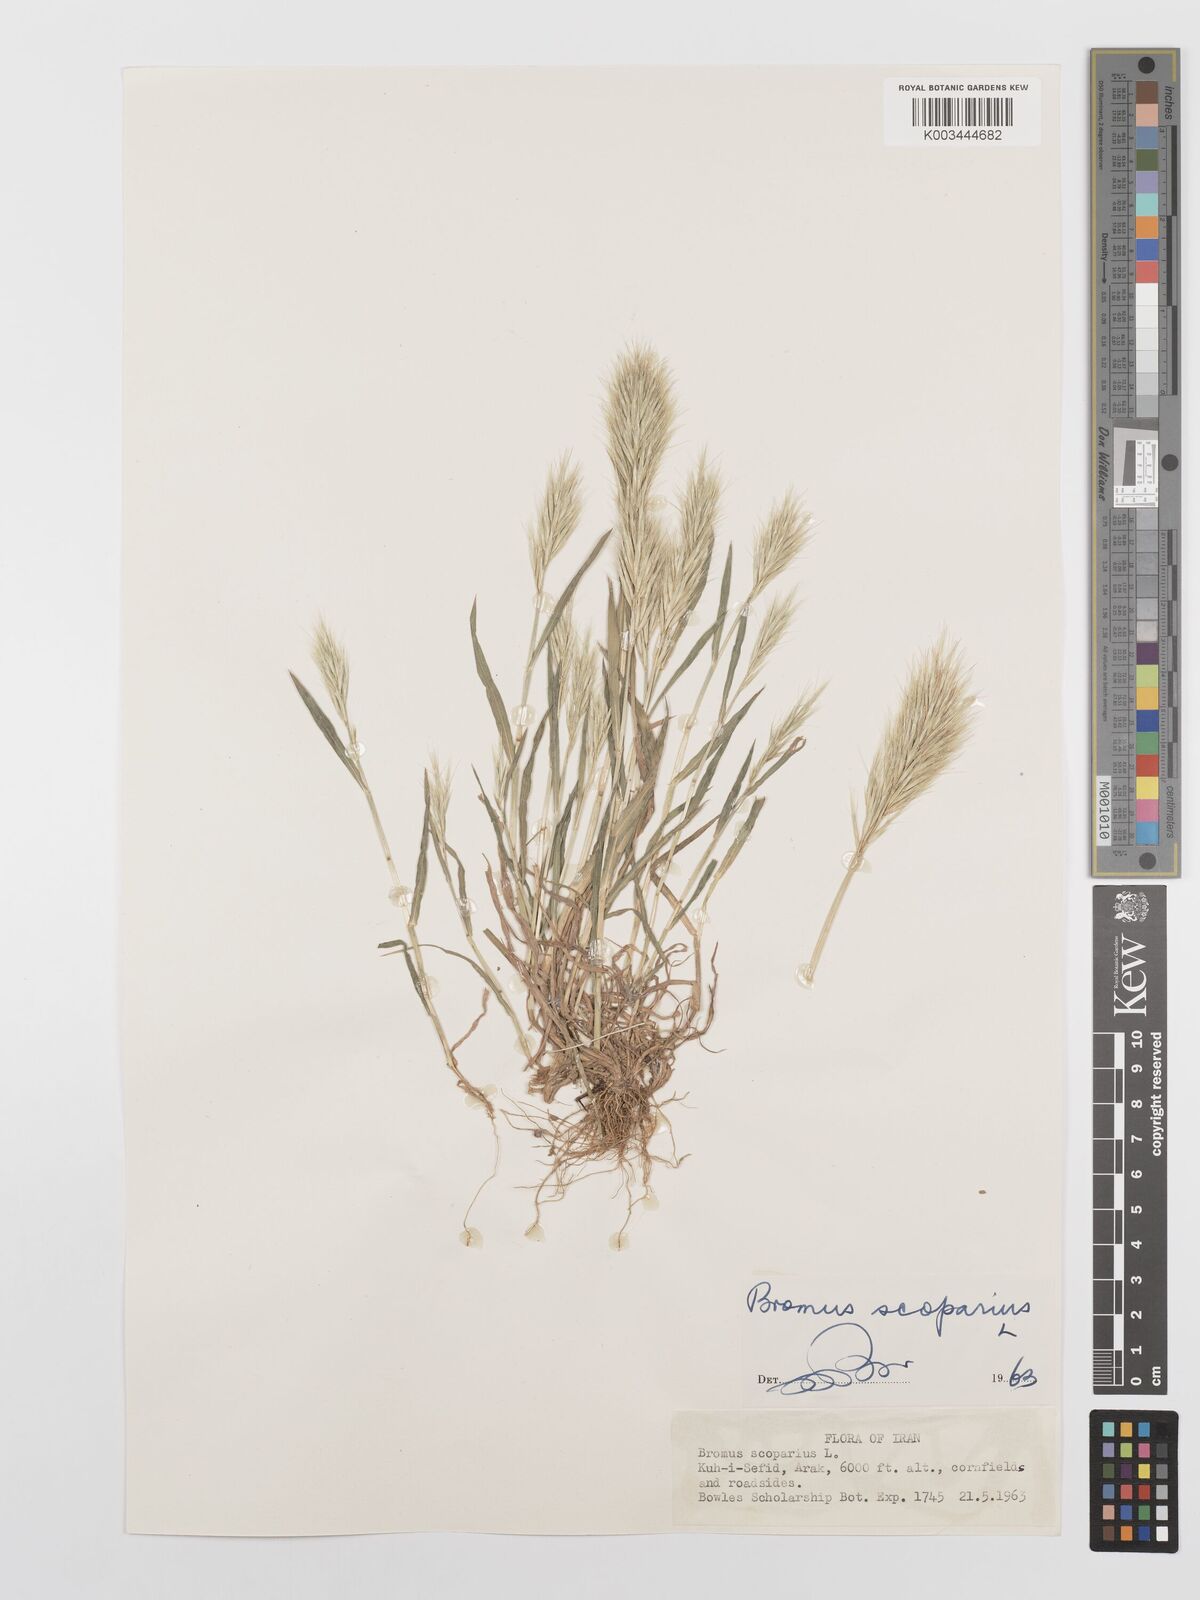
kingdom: Plantae
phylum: Tracheophyta
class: Liliopsida
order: Poales
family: Poaceae
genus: Bromus
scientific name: Bromus scoparius
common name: Broom brome
